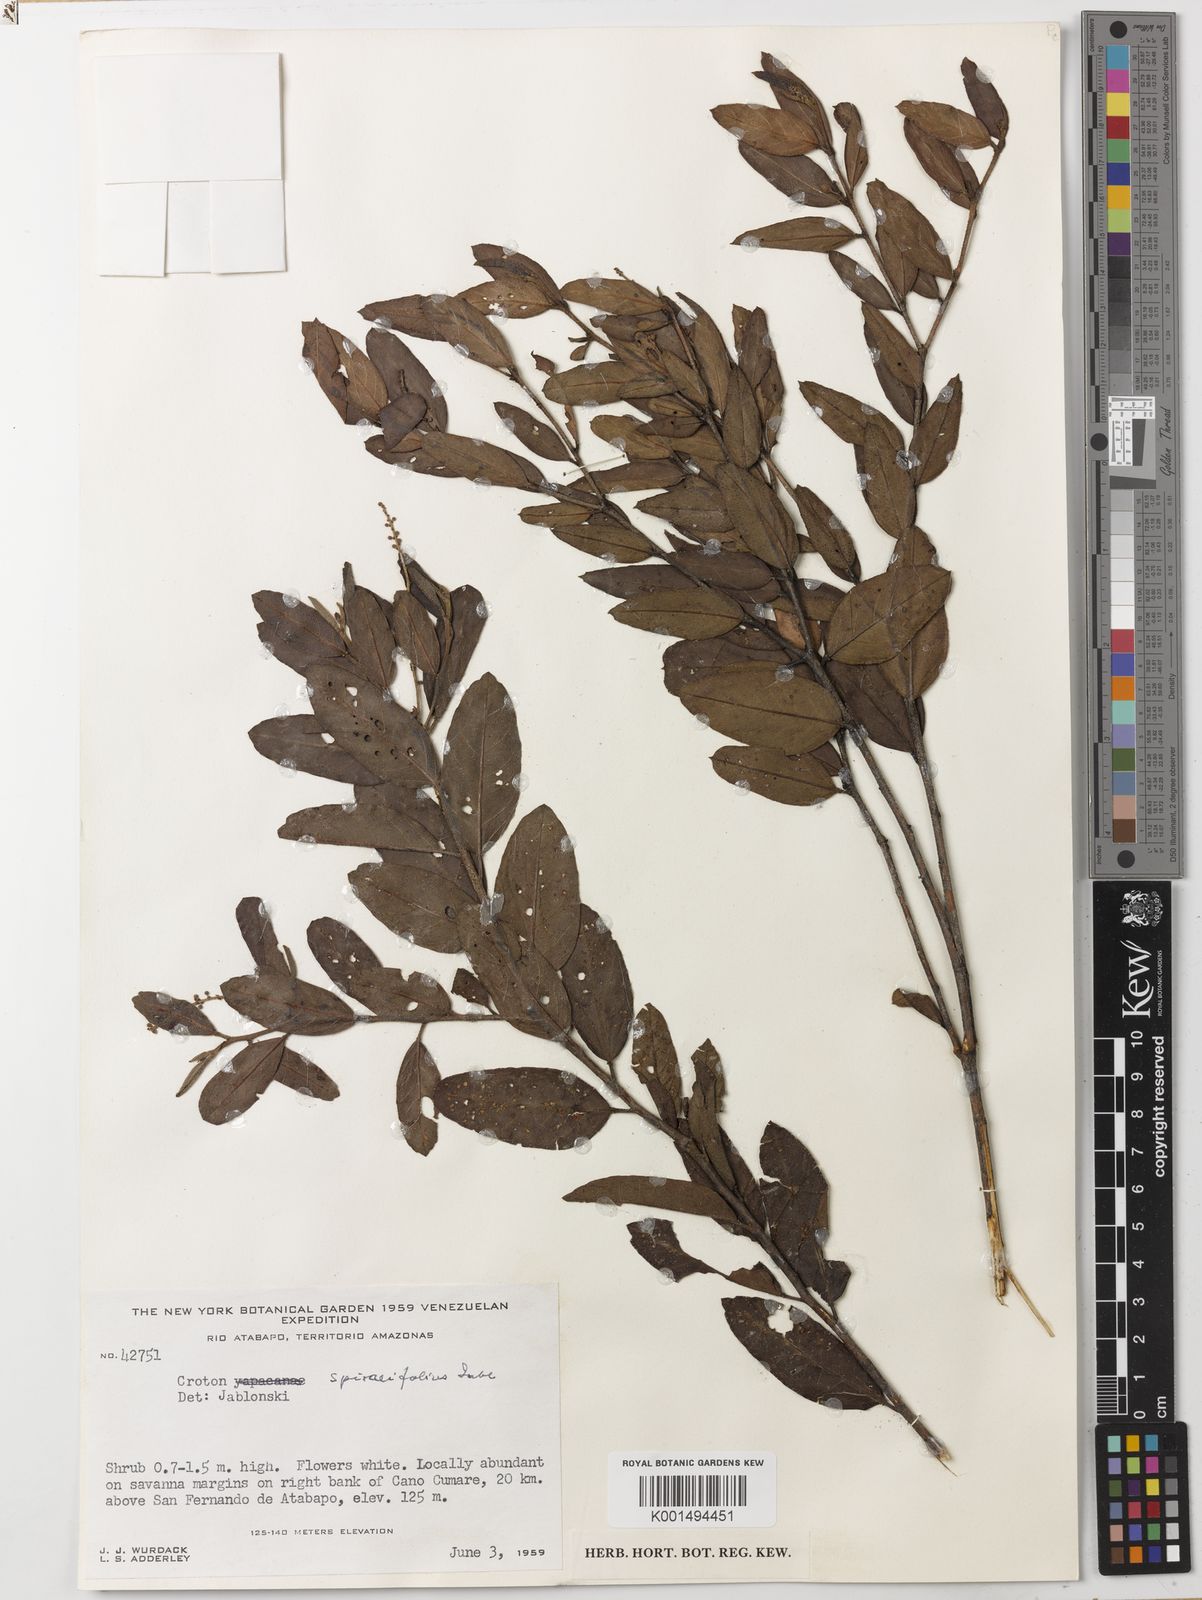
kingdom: Plantae
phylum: Tracheophyta
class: Magnoliopsida
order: Malpighiales
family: Euphorbiaceae
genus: Croton
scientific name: Croton spiraeifolius
